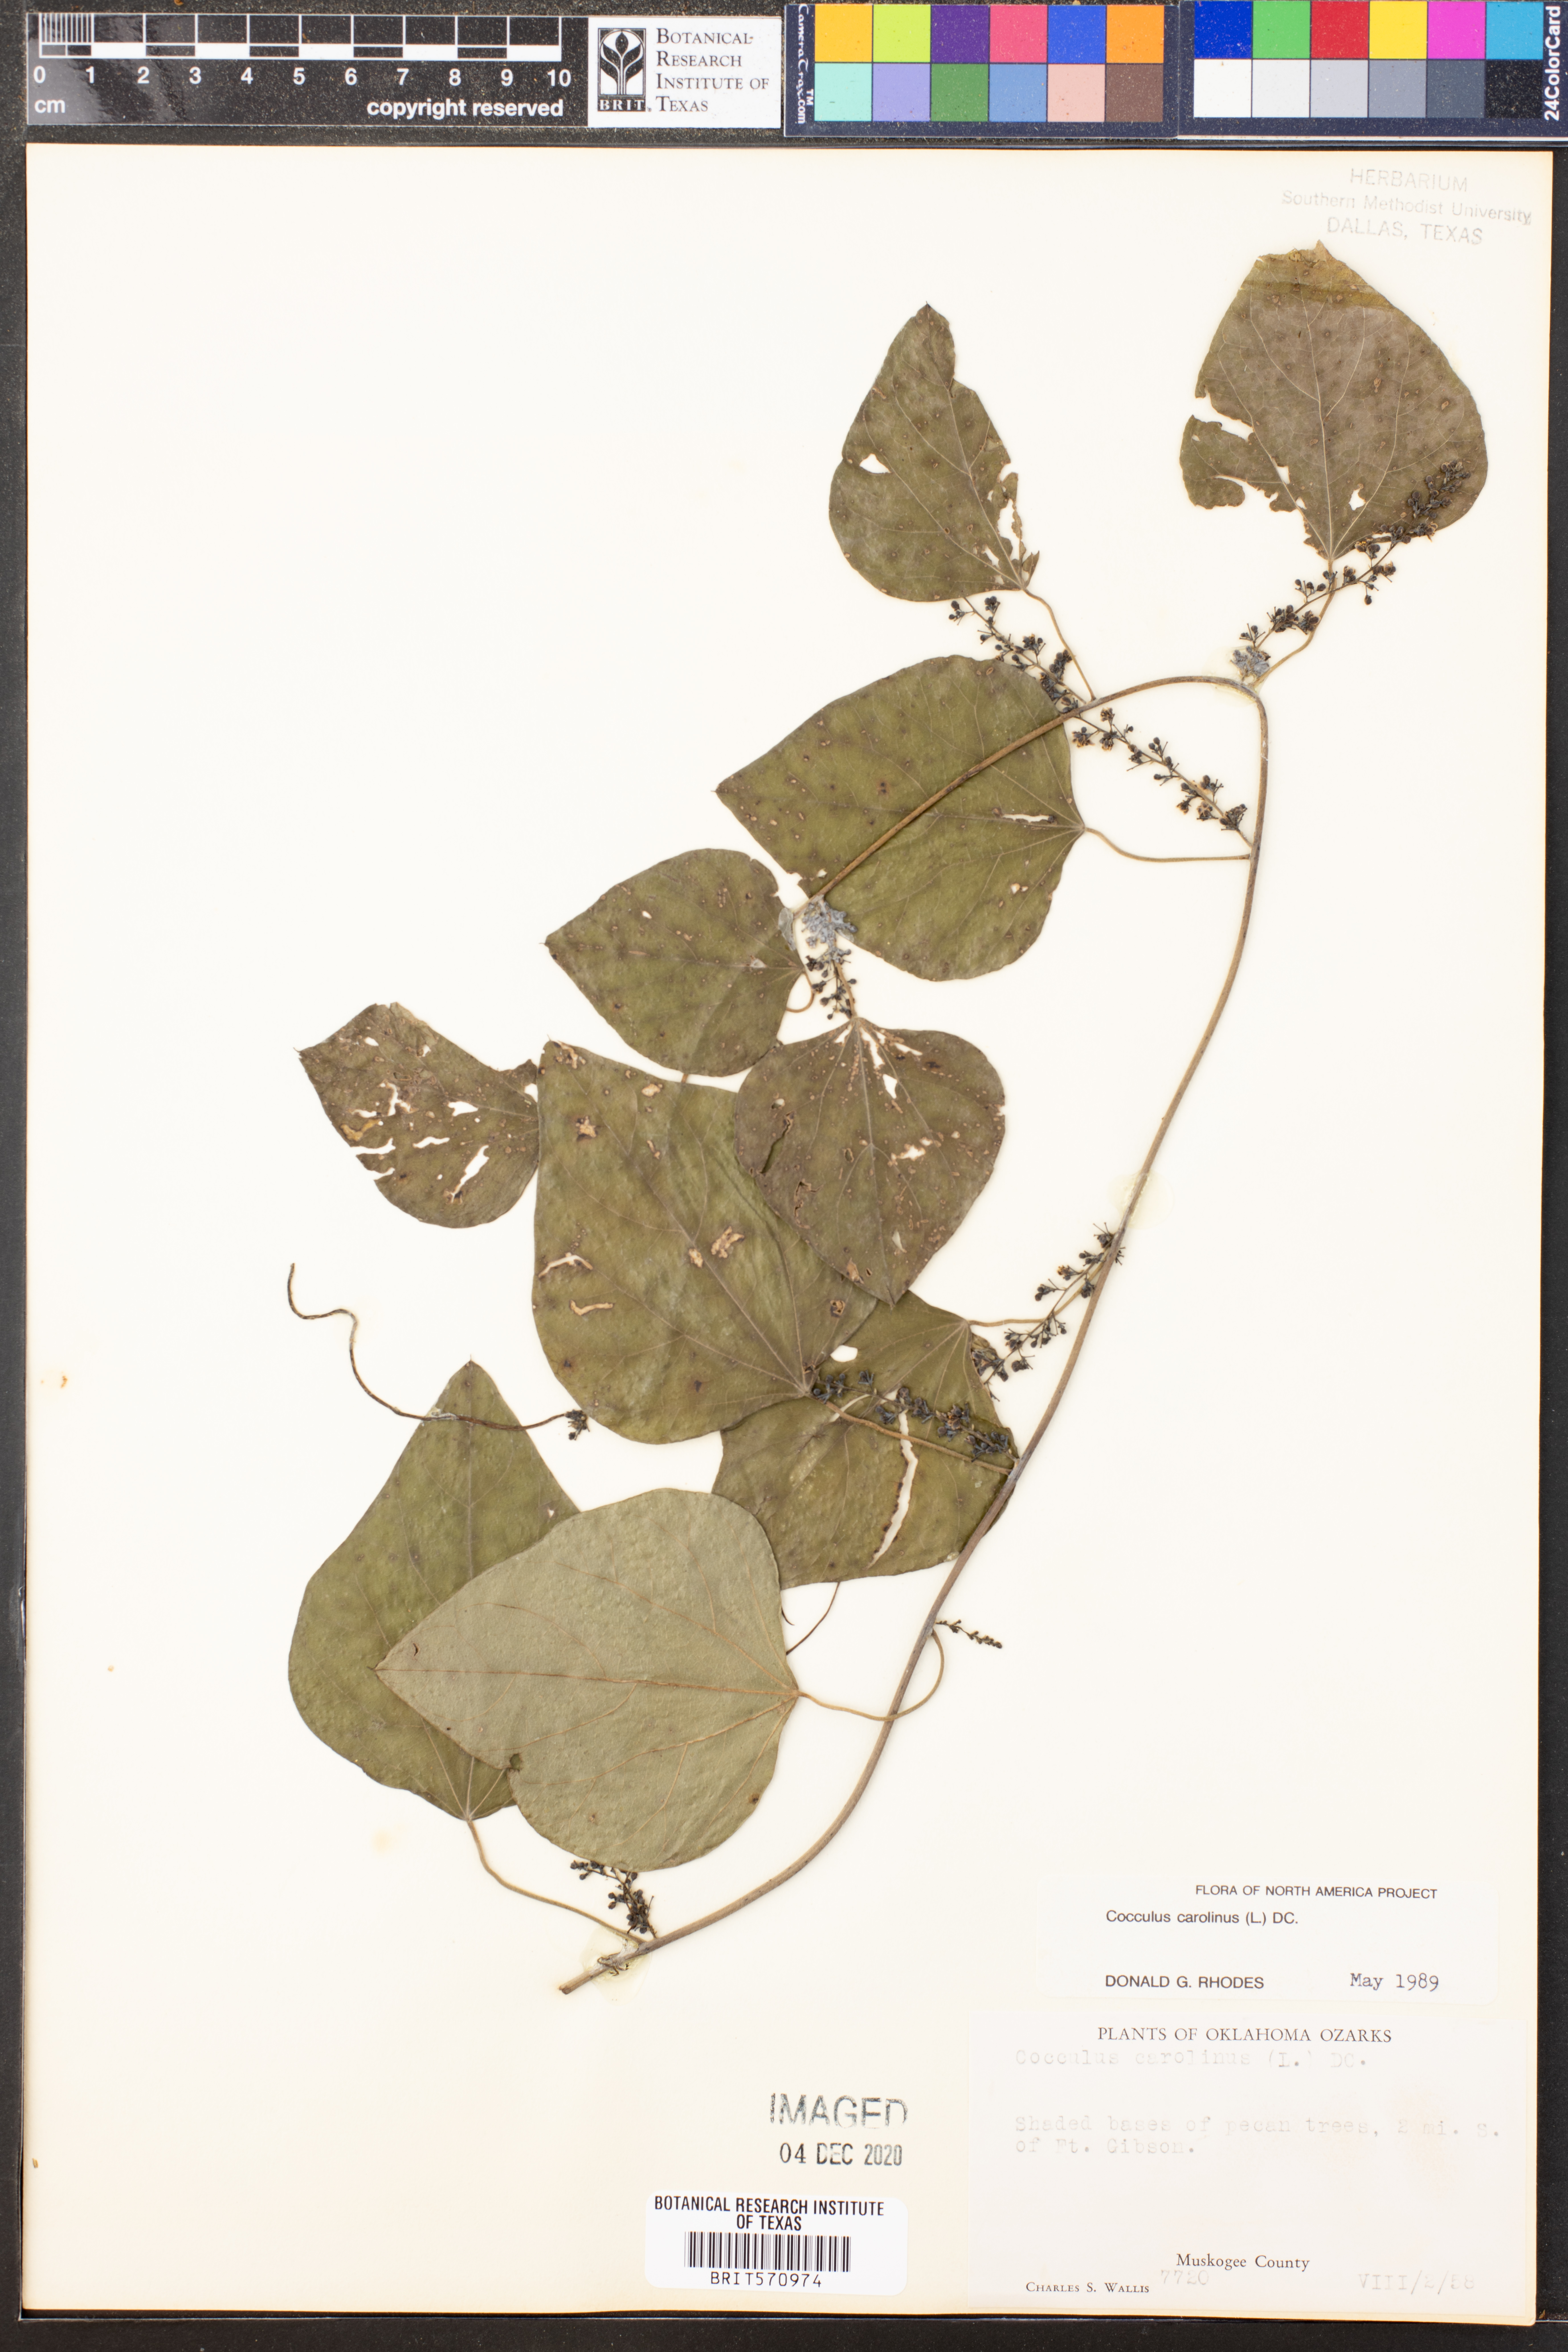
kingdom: Plantae
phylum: Tracheophyta
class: Magnoliopsida
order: Ranunculales
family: Menispermaceae
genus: Cocculus
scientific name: Cocculus carolinus
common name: Carolina moonseed
